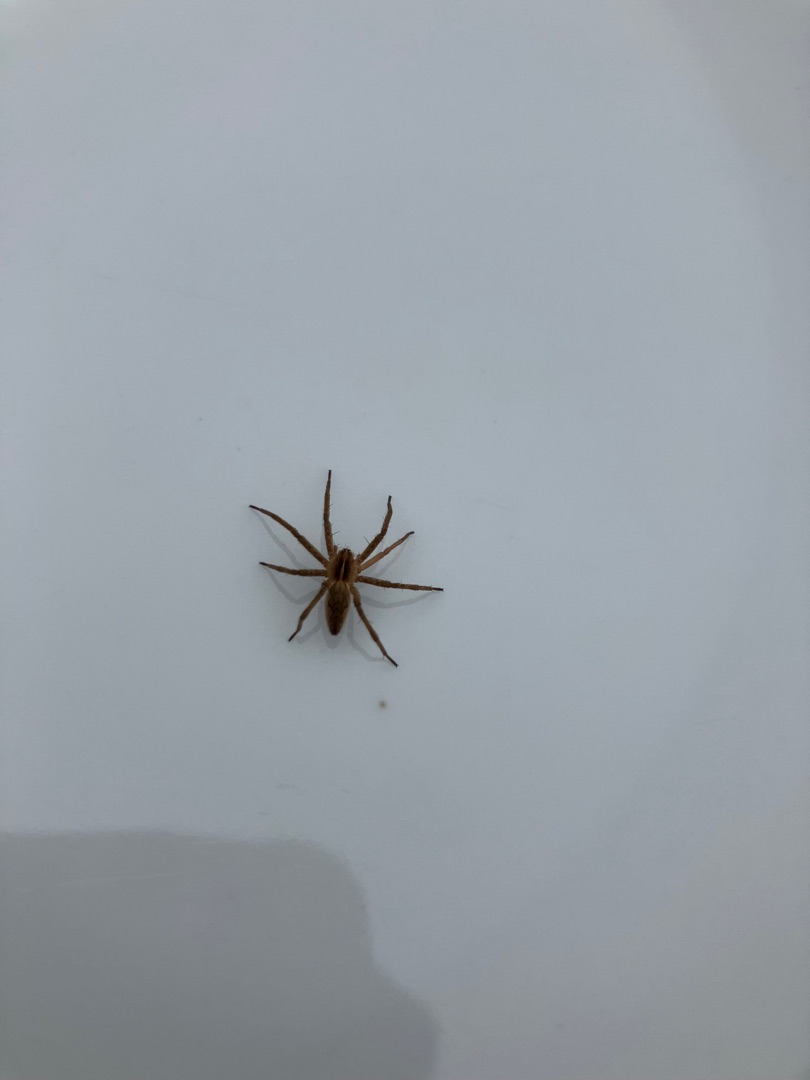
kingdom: Animalia
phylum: Arthropoda
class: Arachnida
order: Araneae
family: Pisauridae
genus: Pisaura
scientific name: Pisaura mirabilis
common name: Almindelig rovedderkop
